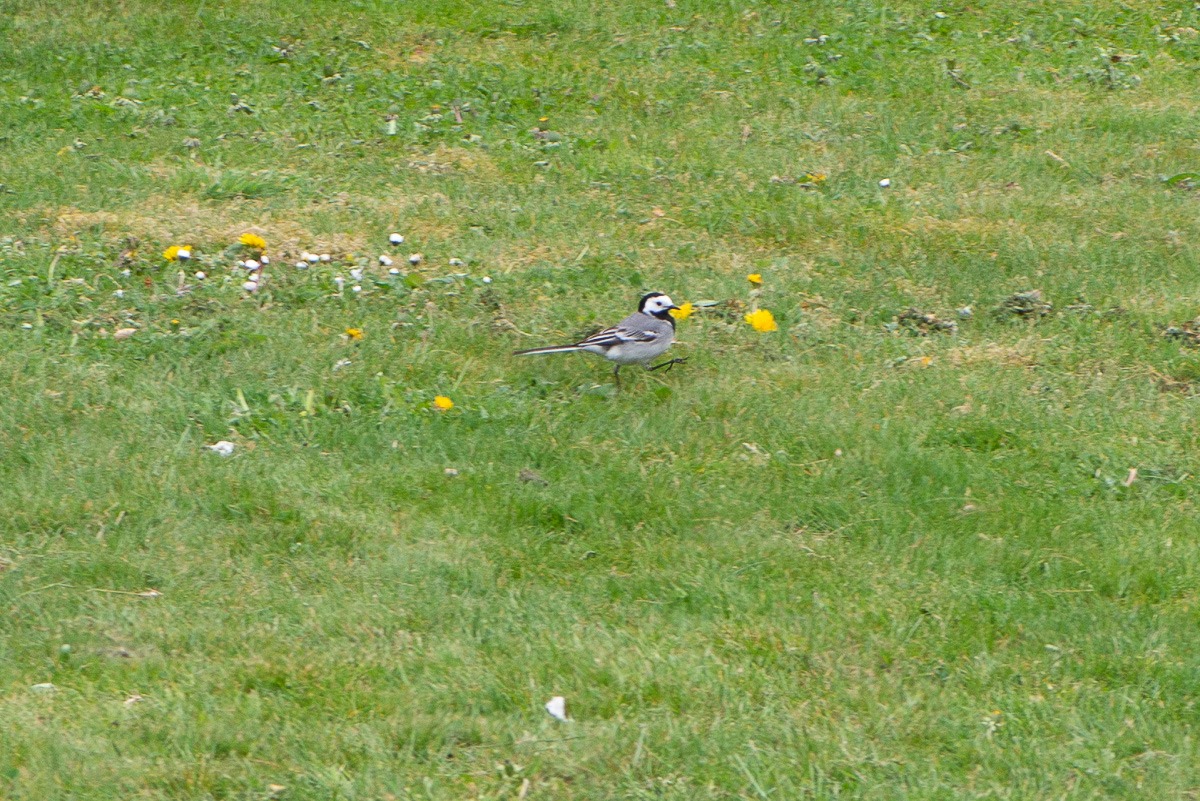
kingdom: Animalia
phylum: Chordata
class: Aves
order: Passeriformes
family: Motacillidae
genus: Motacilla
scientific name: Motacilla alba
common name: Hvid vipstjert
